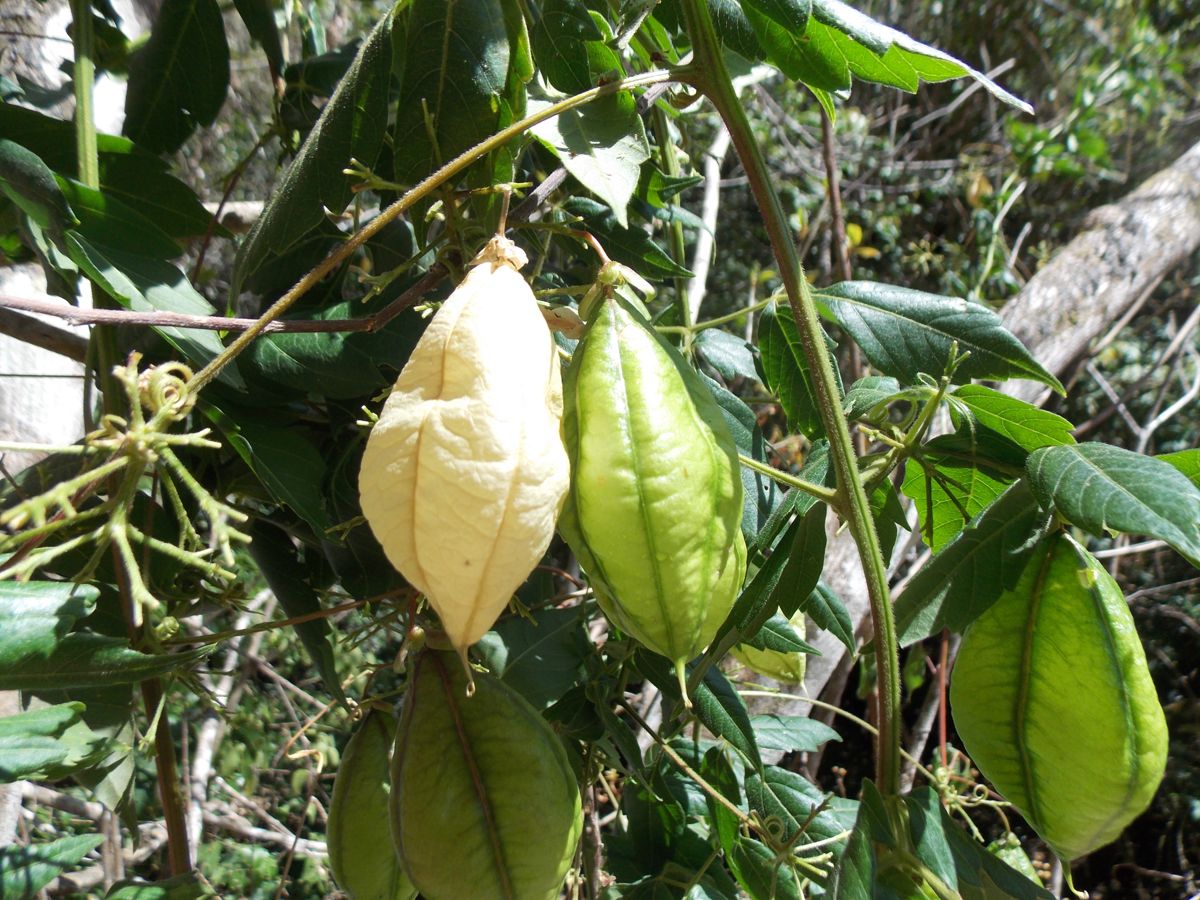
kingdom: Plantae
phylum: Tracheophyta
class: Magnoliopsida
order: Sapindales
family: Sapindaceae
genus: Cardiospermum
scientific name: Cardiospermum grandiflorum
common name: Balloon vine
